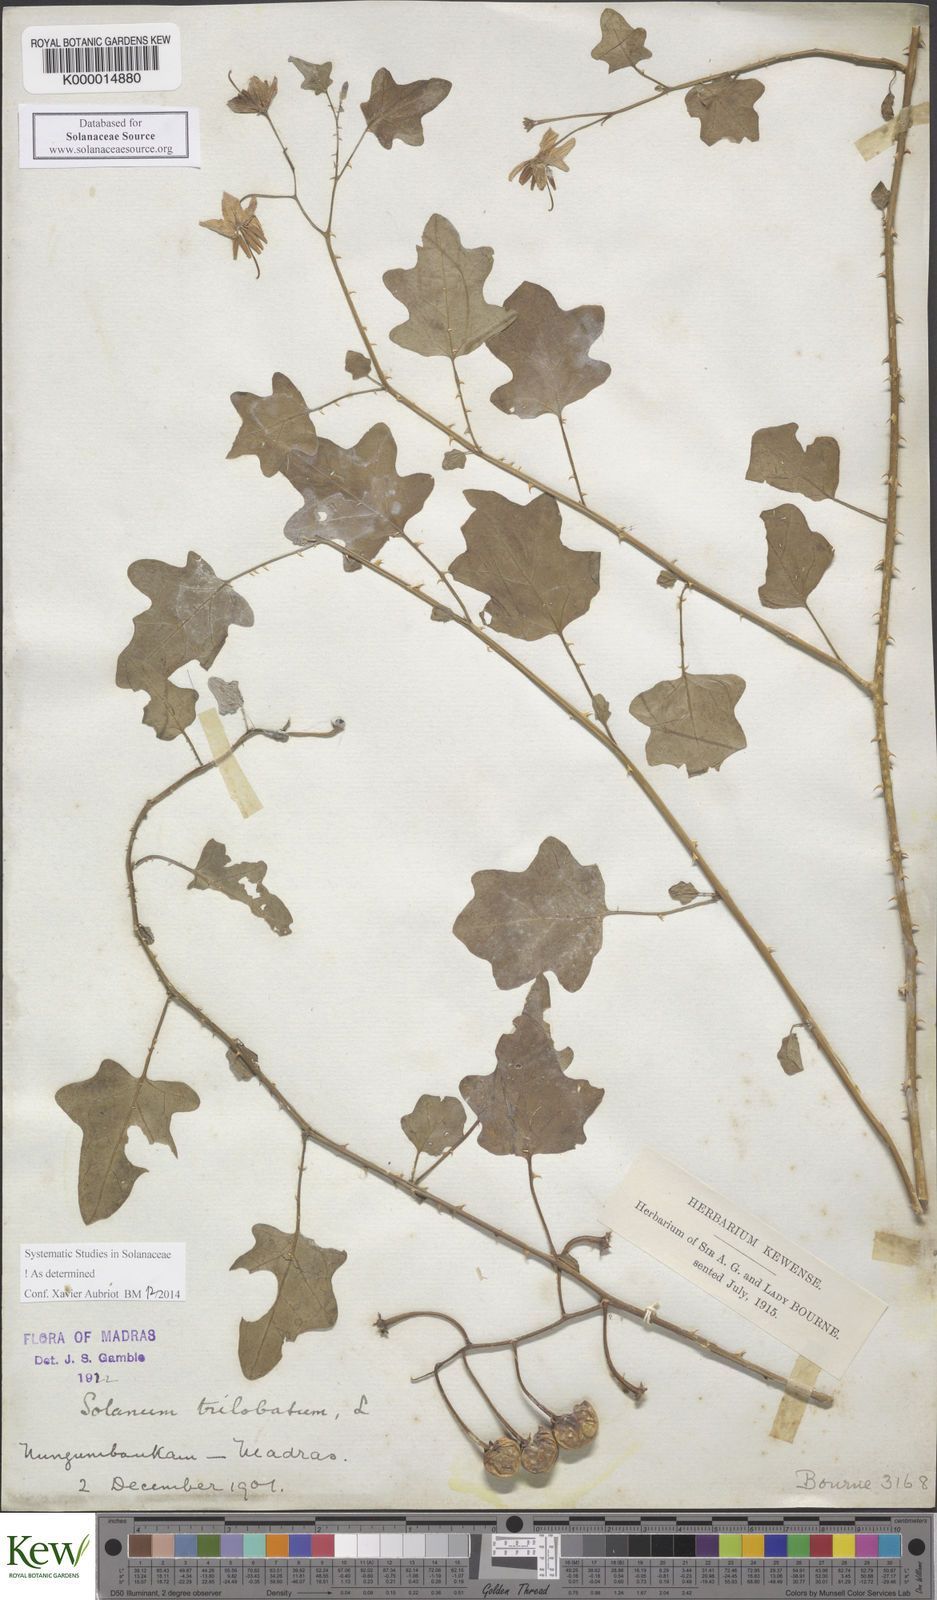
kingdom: Plantae
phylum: Tracheophyta
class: Magnoliopsida
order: Solanales
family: Solanaceae
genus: Solanum
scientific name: Solanum trilobatum
